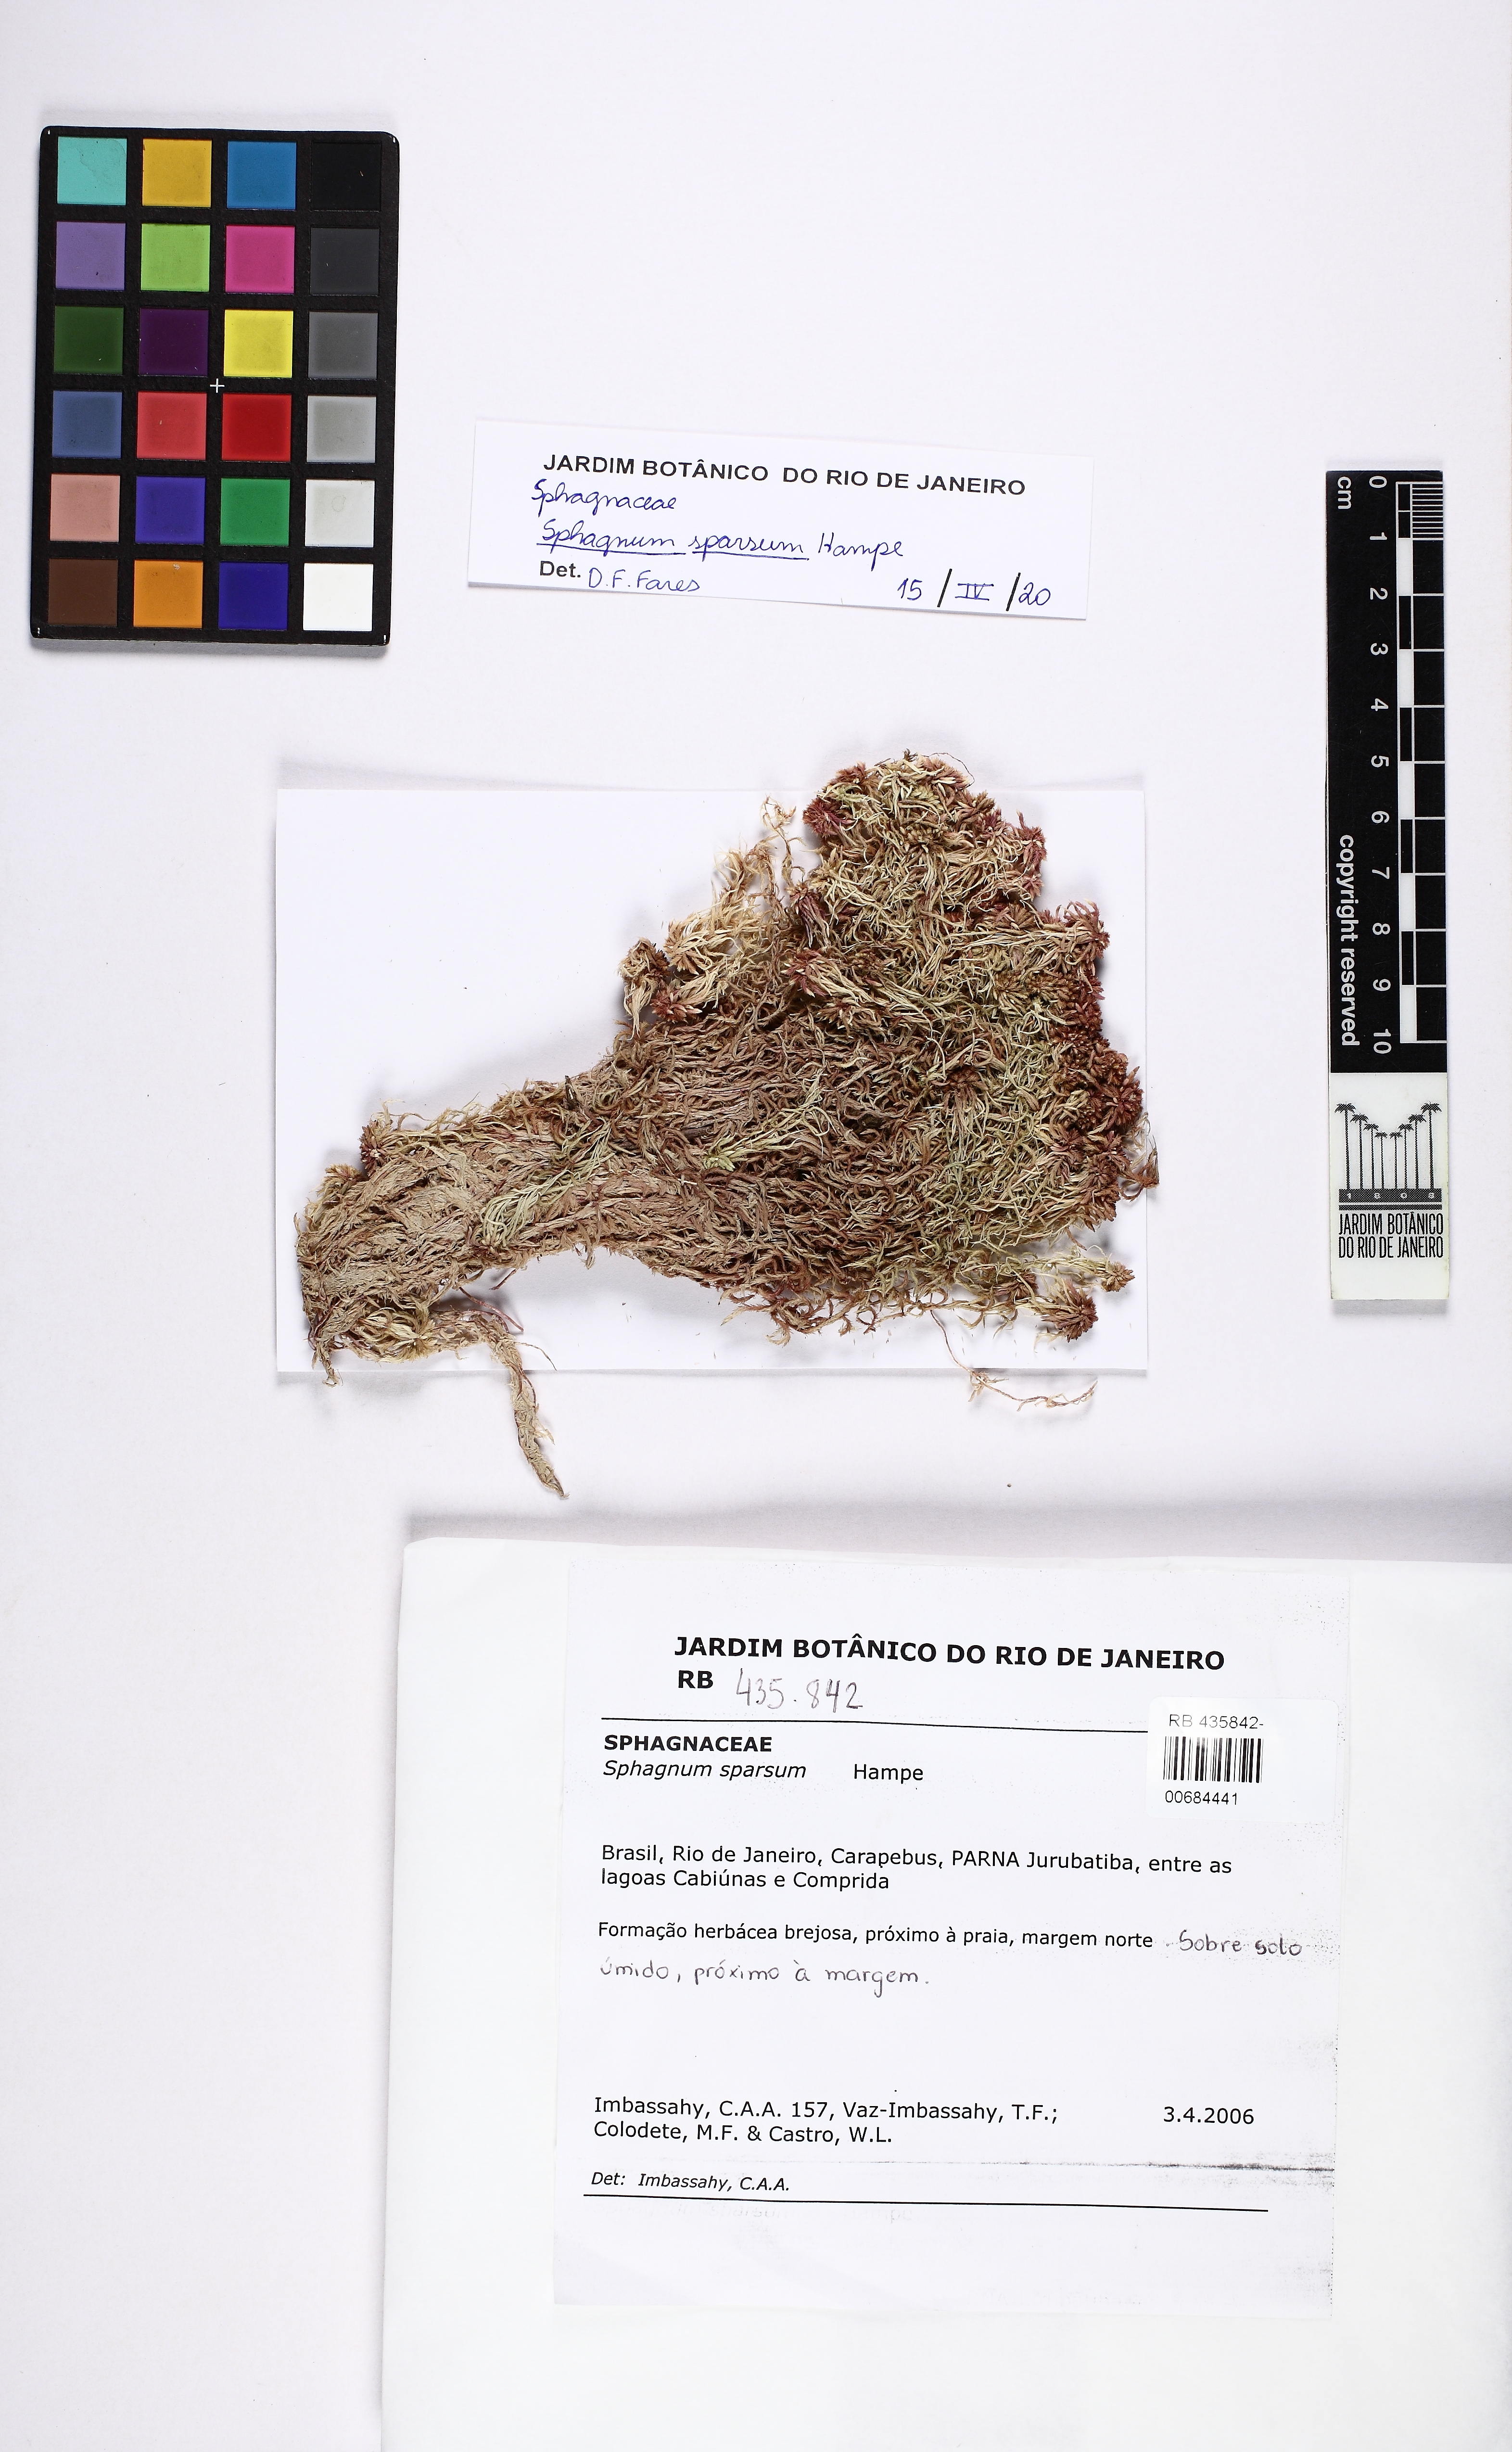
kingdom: Plantae
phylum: Bryophyta
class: Sphagnopsida
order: Sphagnales
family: Sphagnaceae
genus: Sphagnum
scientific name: Sphagnum sparsum
